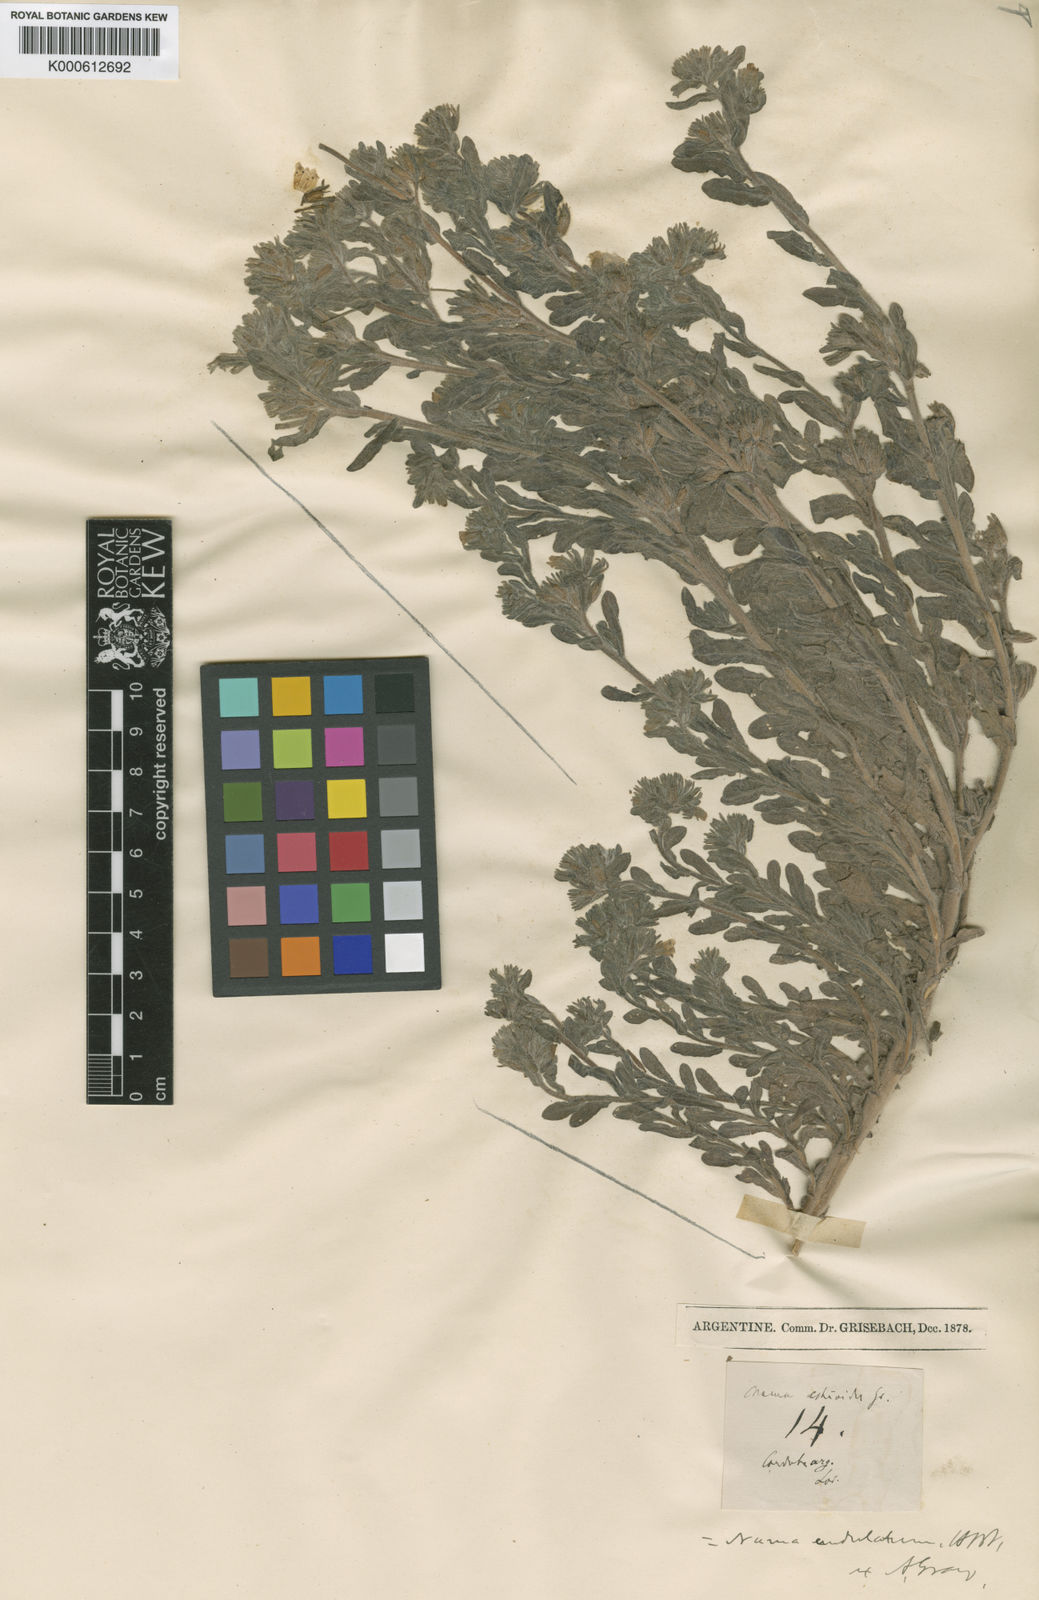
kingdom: Plantae
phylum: Tracheophyta
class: Magnoliopsida
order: Boraginales
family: Namaceae
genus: Nama
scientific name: Nama undulata
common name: Whitewhisker fiddleleaf
